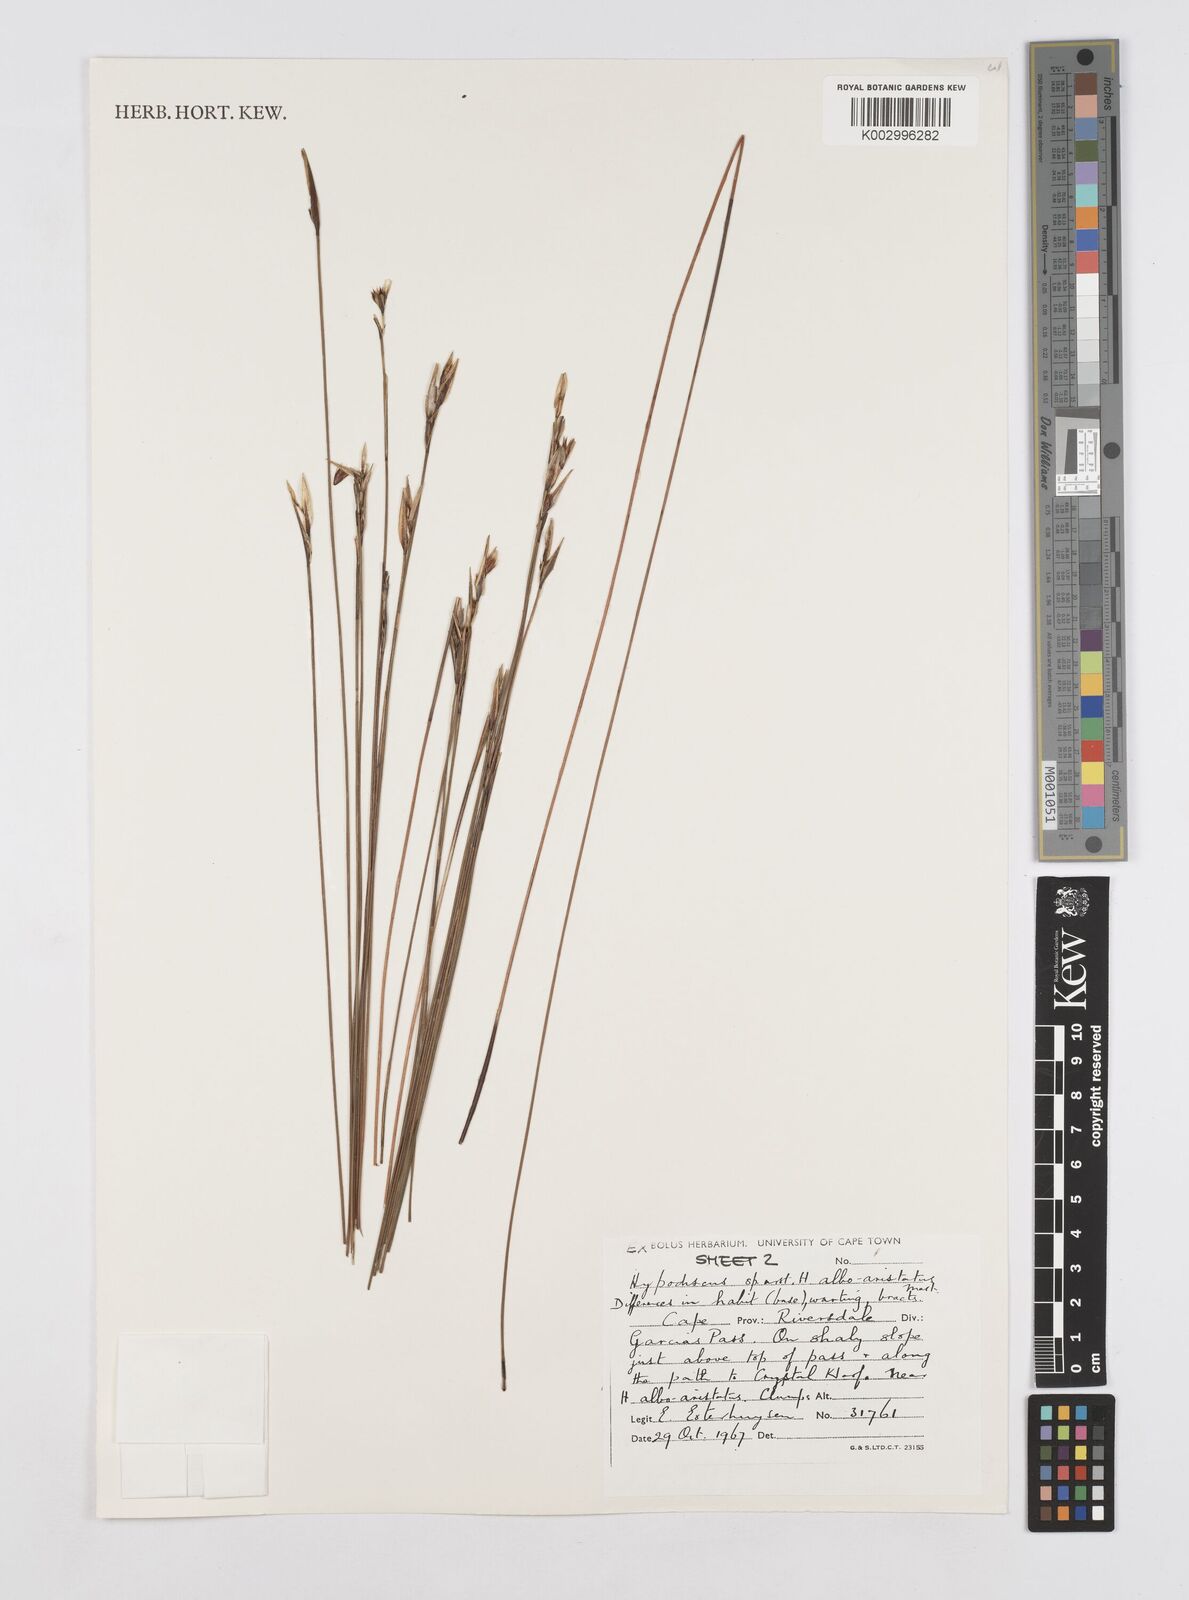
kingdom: Plantae
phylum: Tracheophyta
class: Liliopsida
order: Poales
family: Restionaceae
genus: Hypodiscus
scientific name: Hypodiscus alboaristatus
